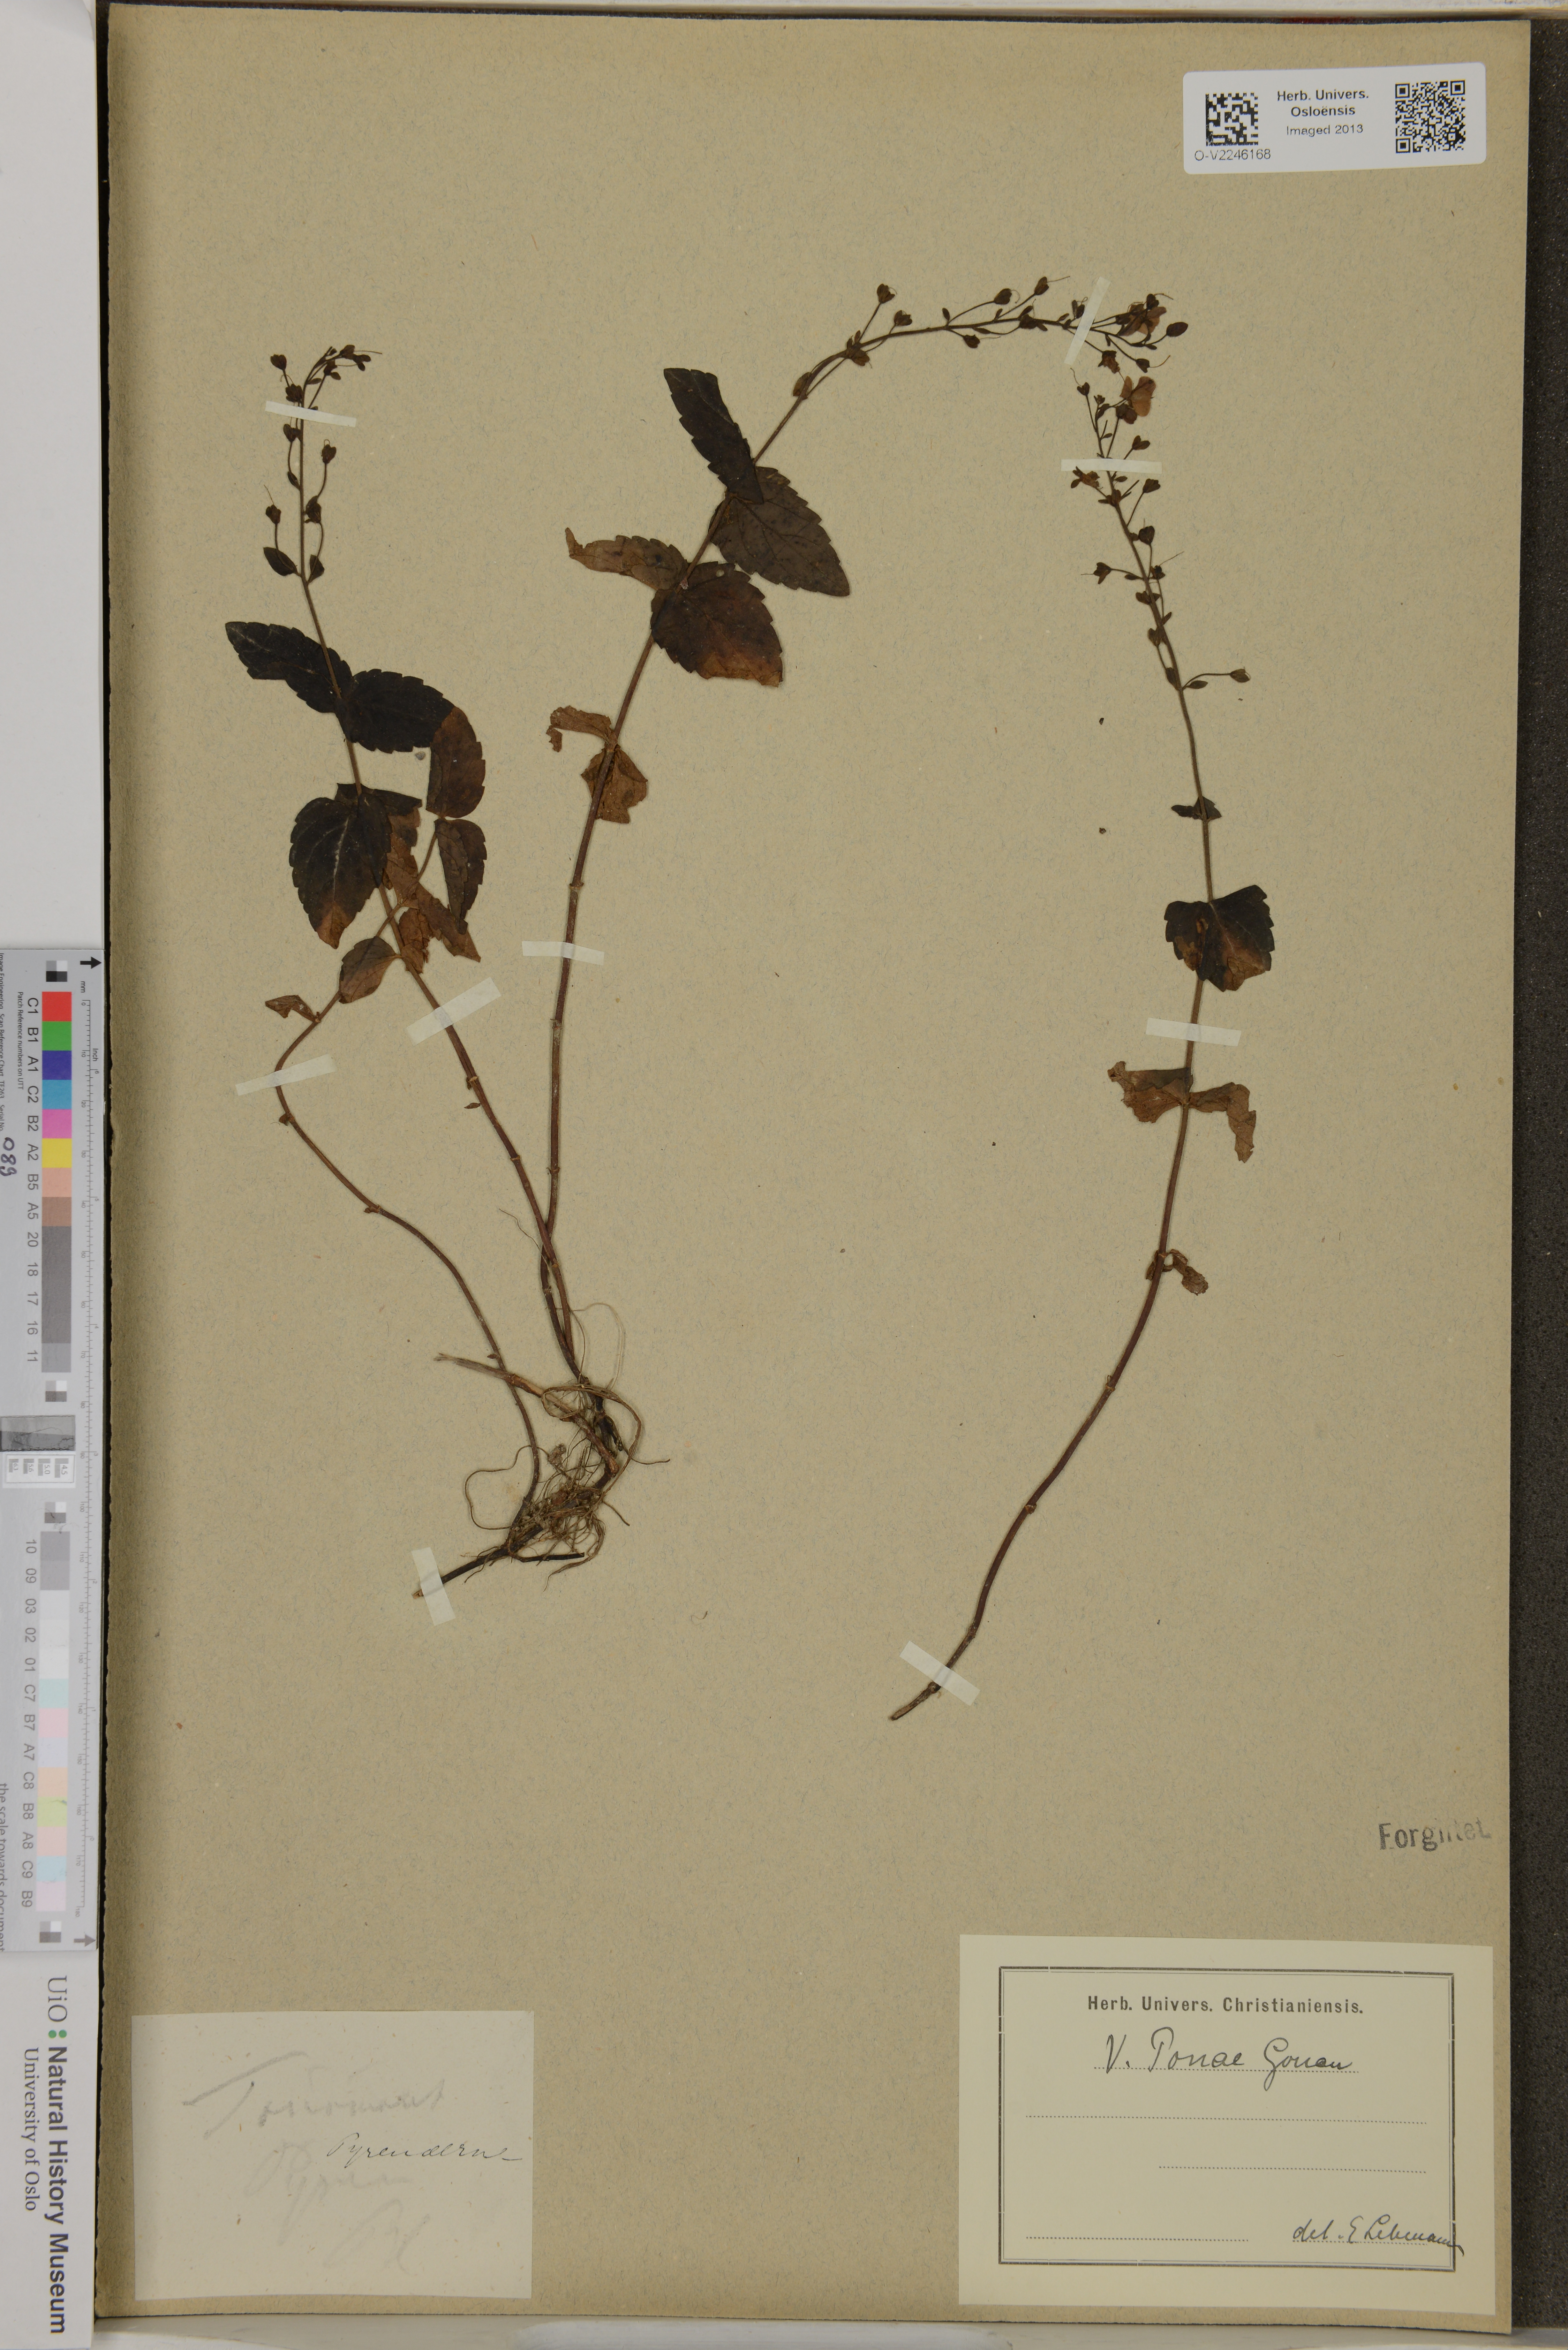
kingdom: Plantae
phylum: Tracheophyta
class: Magnoliopsida
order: Lamiales
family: Plantaginaceae
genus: Veronica
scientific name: Veronica ponae
